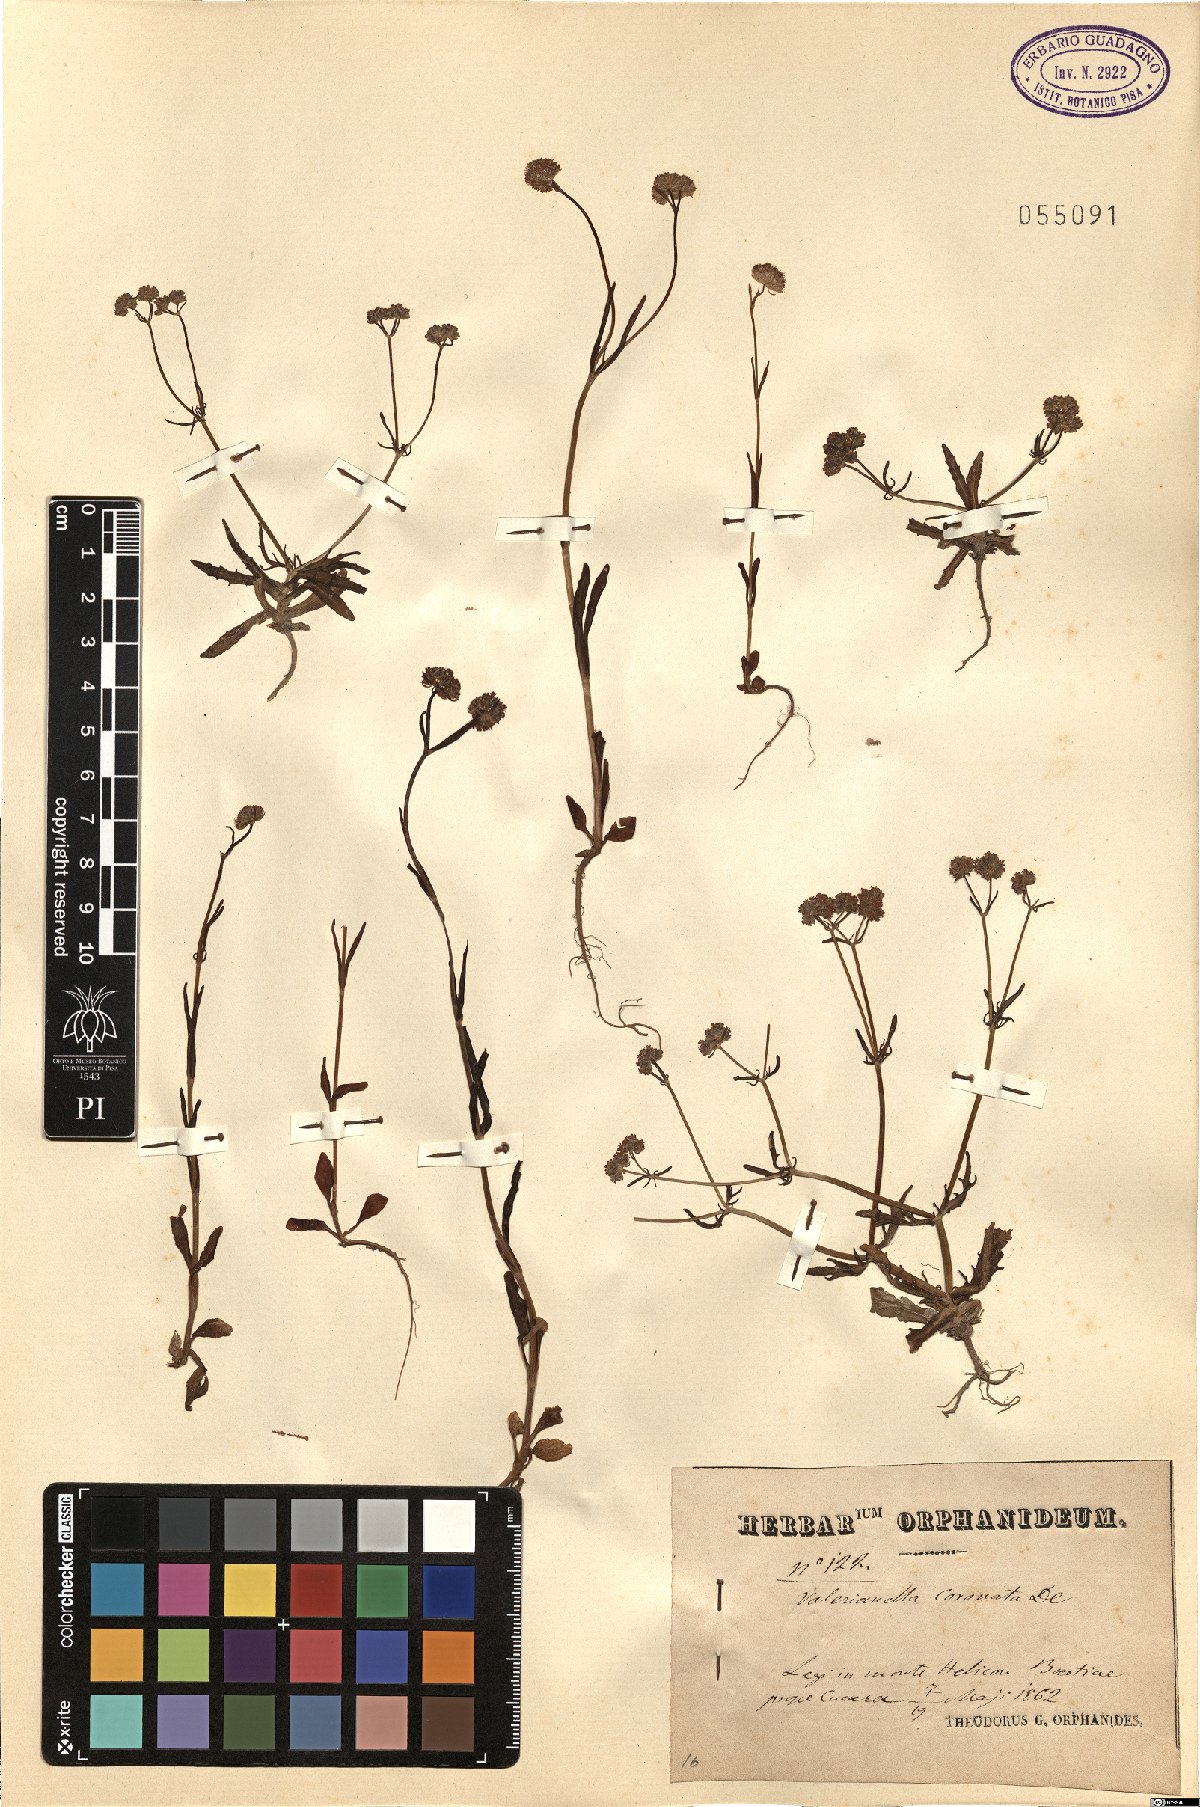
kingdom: Plantae
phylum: Tracheophyta
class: Magnoliopsida
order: Dipsacales
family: Caprifoliaceae
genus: Valerianella
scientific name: Valerianella coronata
